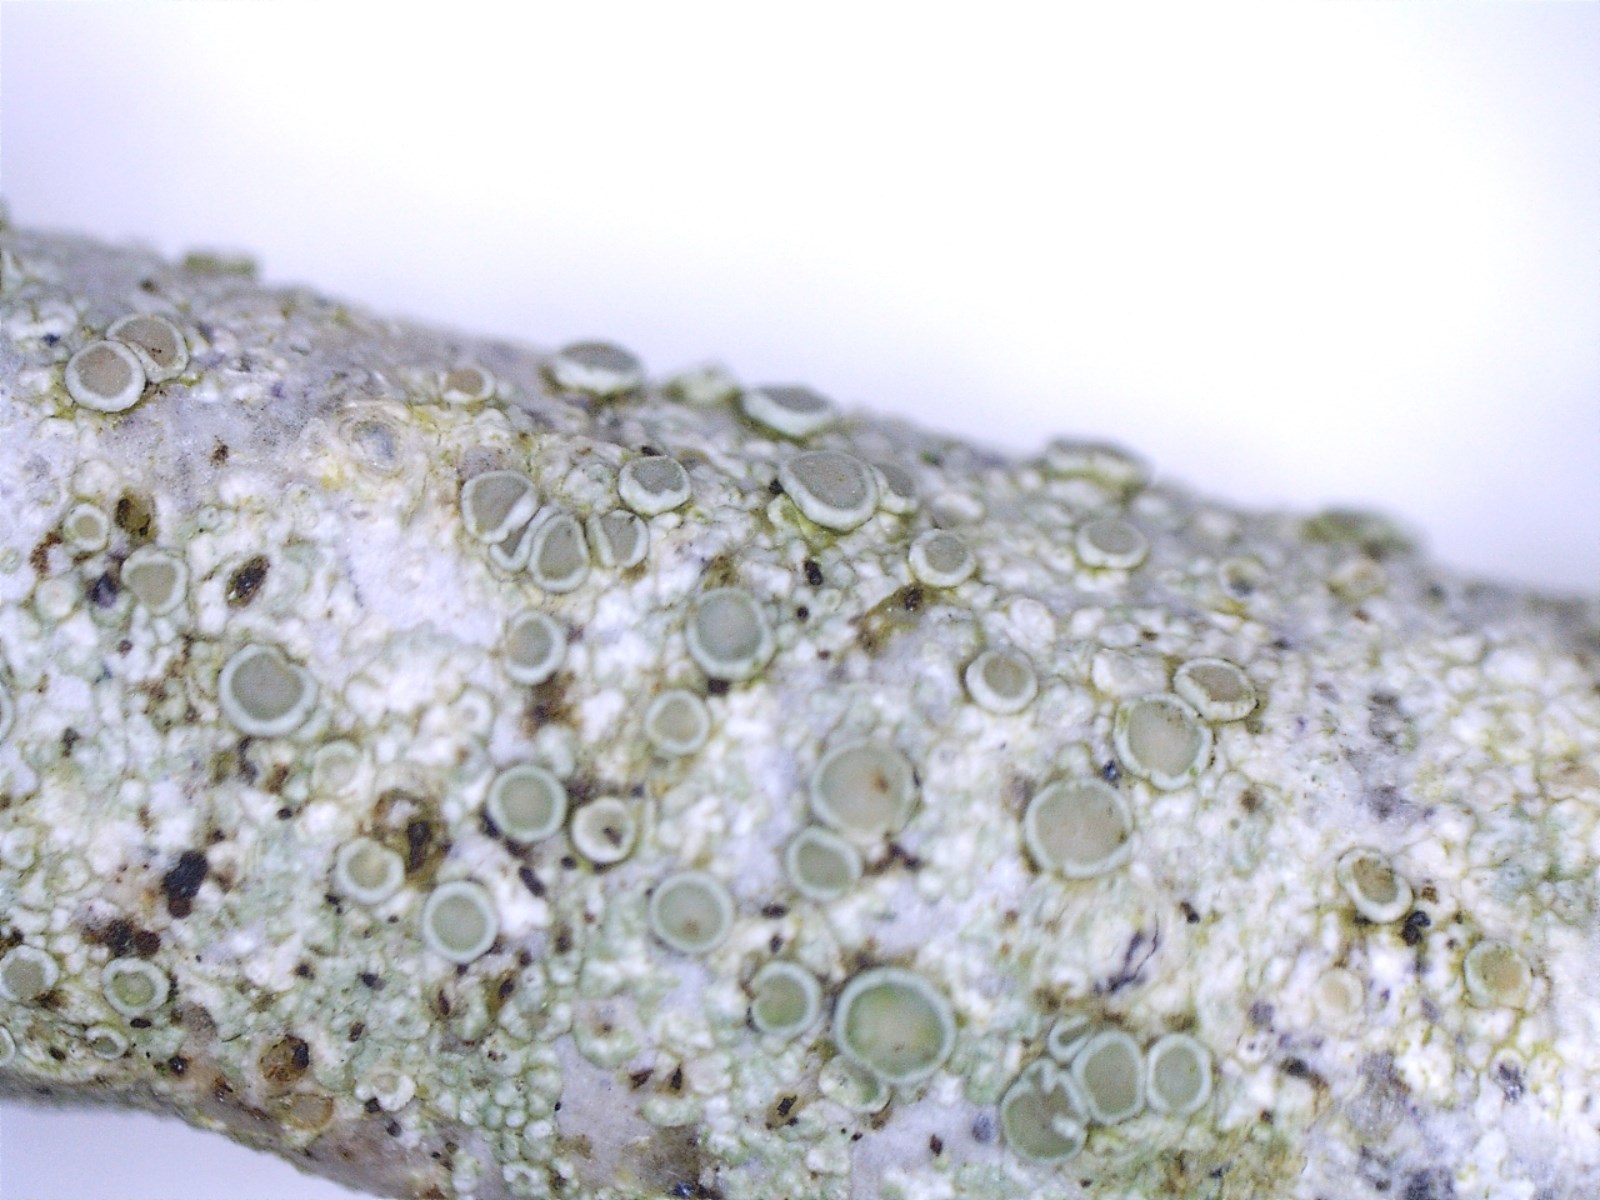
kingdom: Fungi
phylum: Ascomycota
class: Lecanoromycetes
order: Lecanorales
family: Lecanoraceae
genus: Glaucomaria
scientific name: Glaucomaria carpinea
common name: hviddugget kantskivelav
